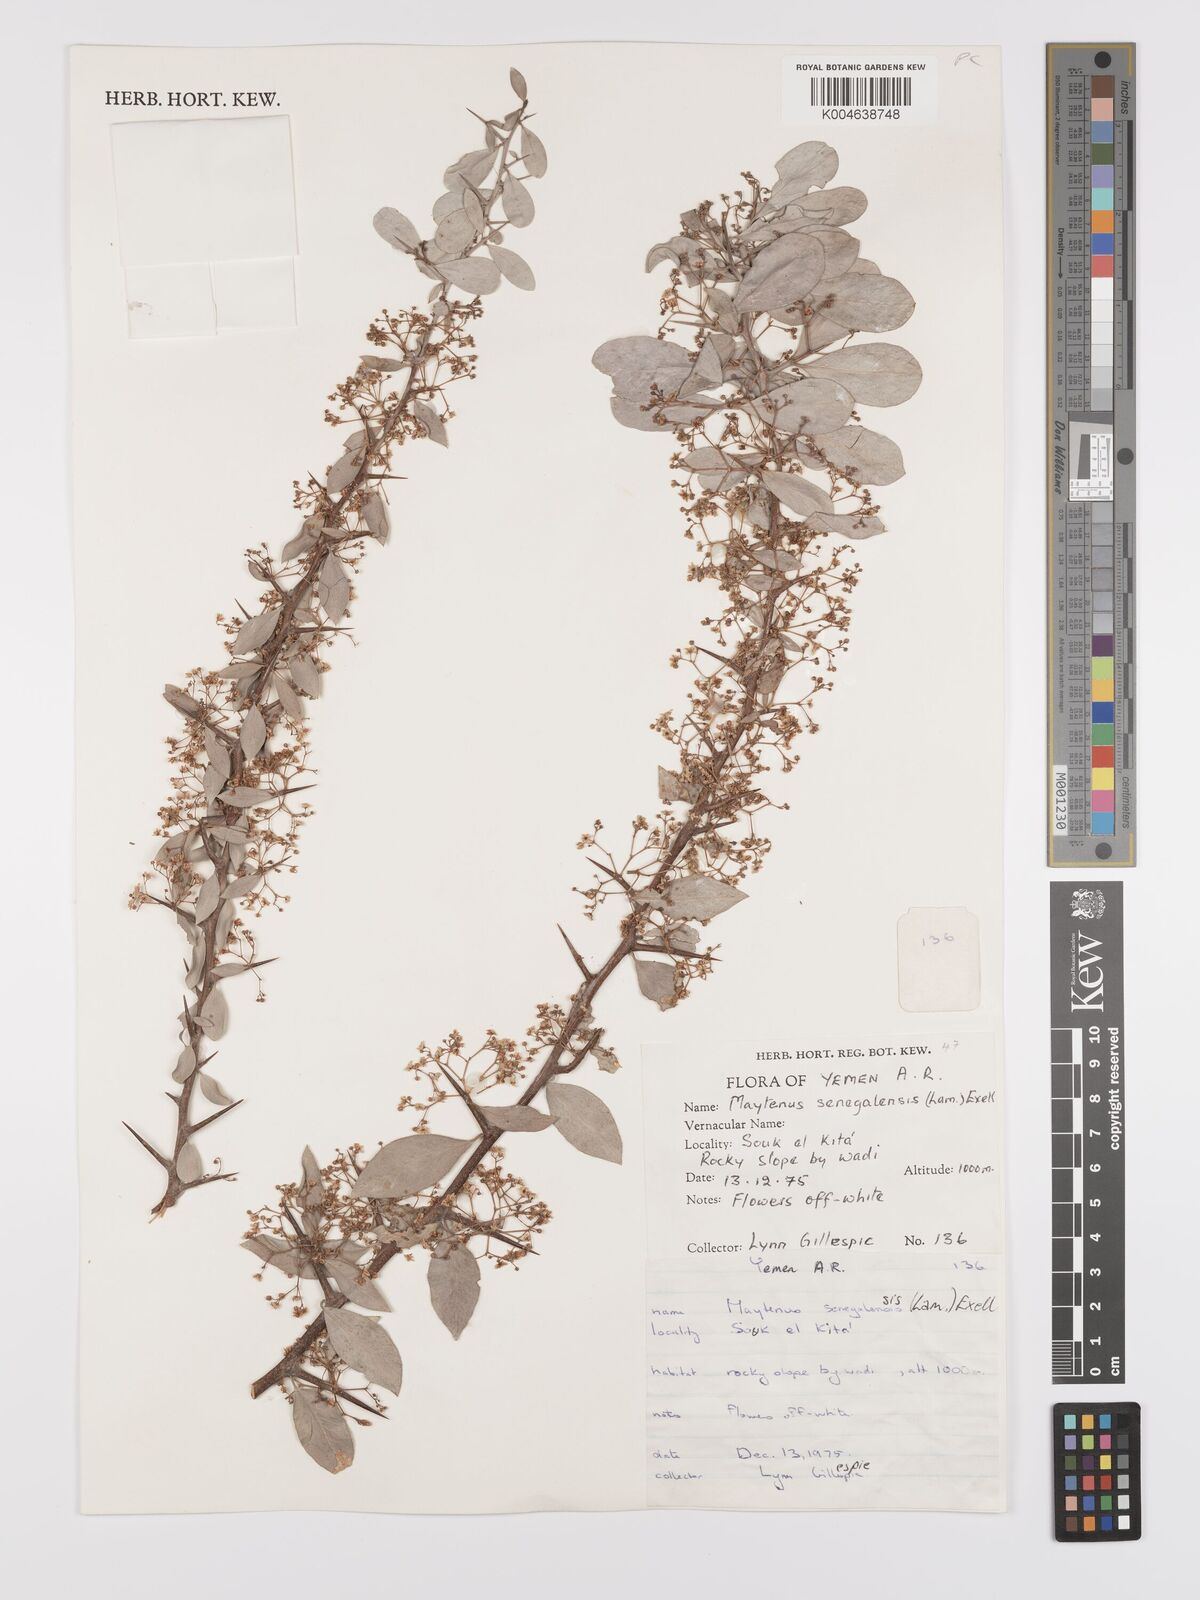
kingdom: Plantae
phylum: Tracheophyta
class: Magnoliopsida
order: Celastrales
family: Celastraceae
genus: Gymnosporia
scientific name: Gymnosporia senegalensis
